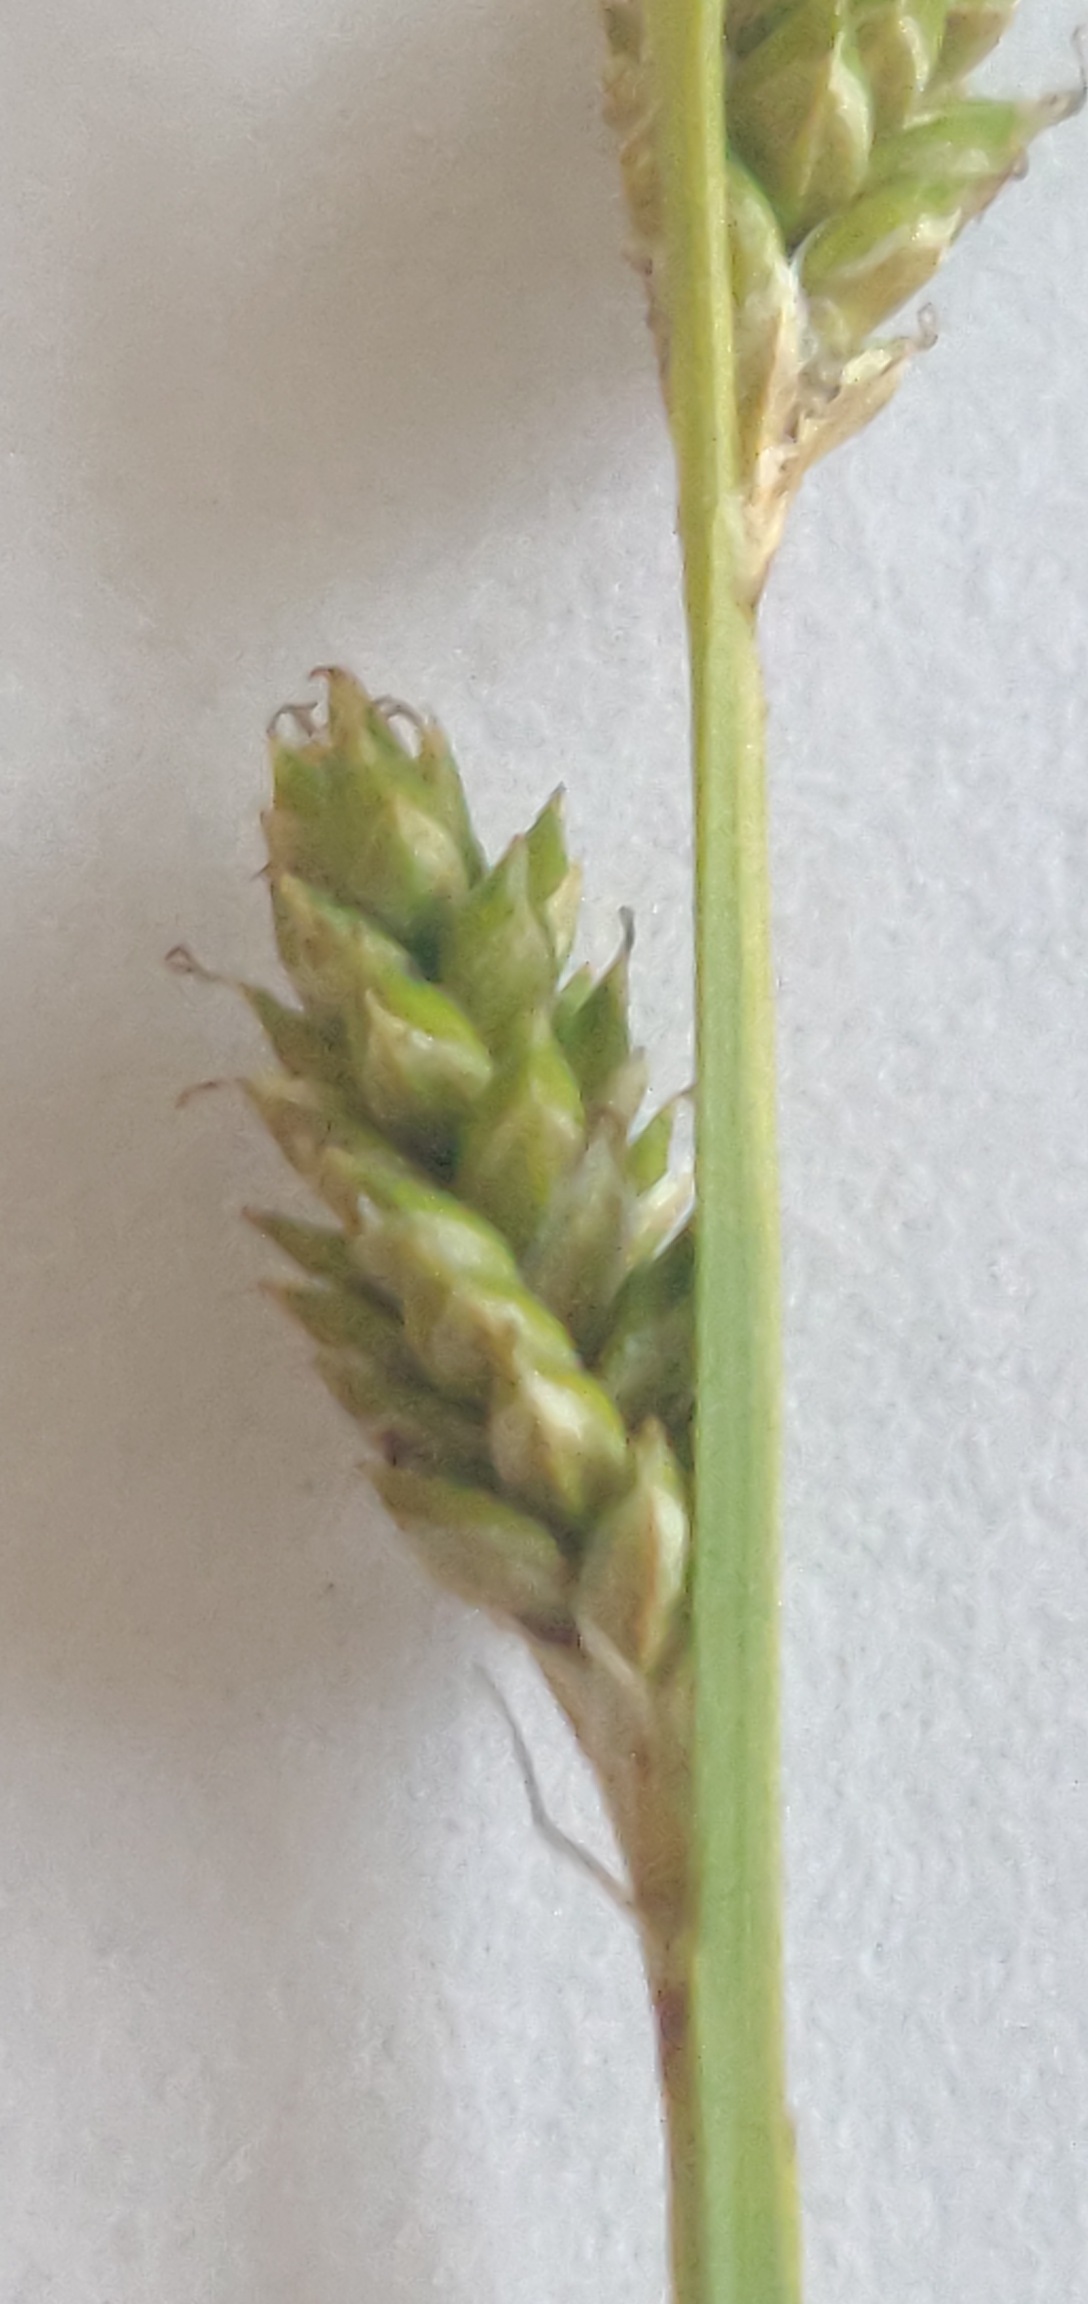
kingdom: Plantae
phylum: Tracheophyta
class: Liliopsida
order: Poales
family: Cyperaceae
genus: Carex
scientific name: Carex canescens
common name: Grå star
